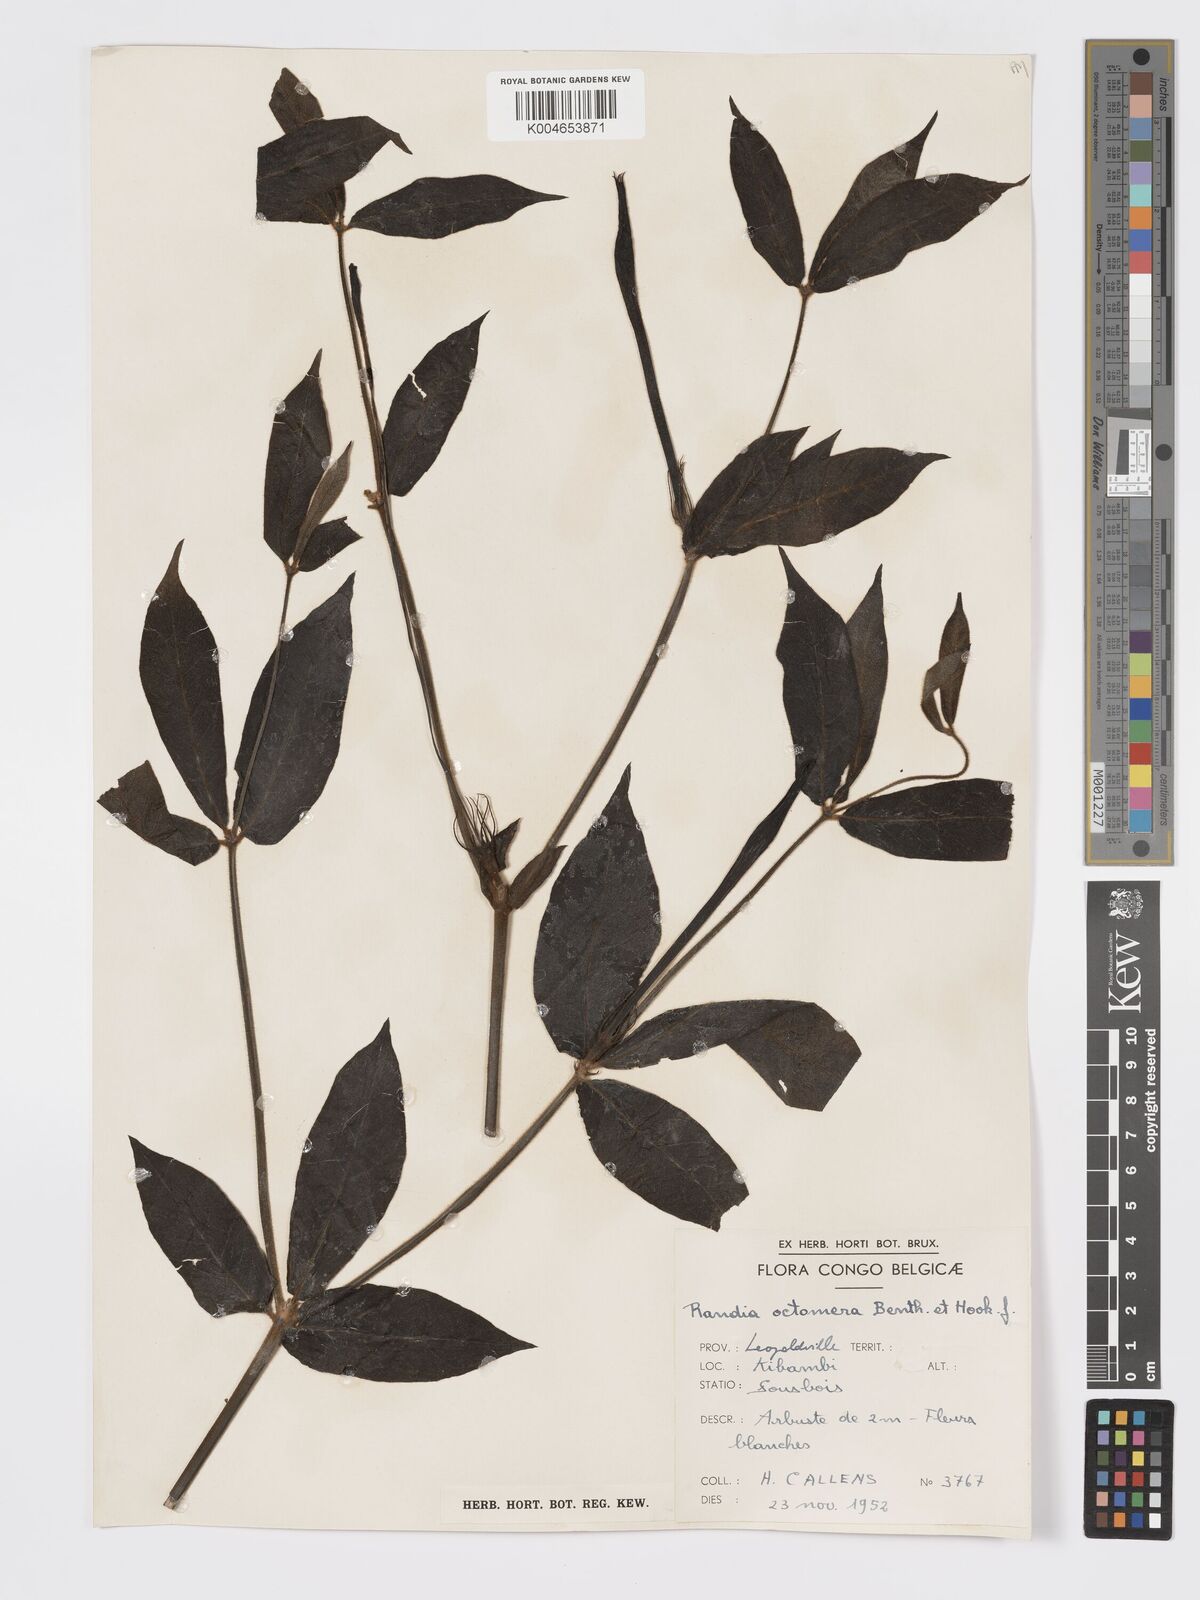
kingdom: Plantae
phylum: Tracheophyta
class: Magnoliopsida
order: Gentianales
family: Rubiaceae
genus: Rothmannia
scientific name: Rothmannia octomera
